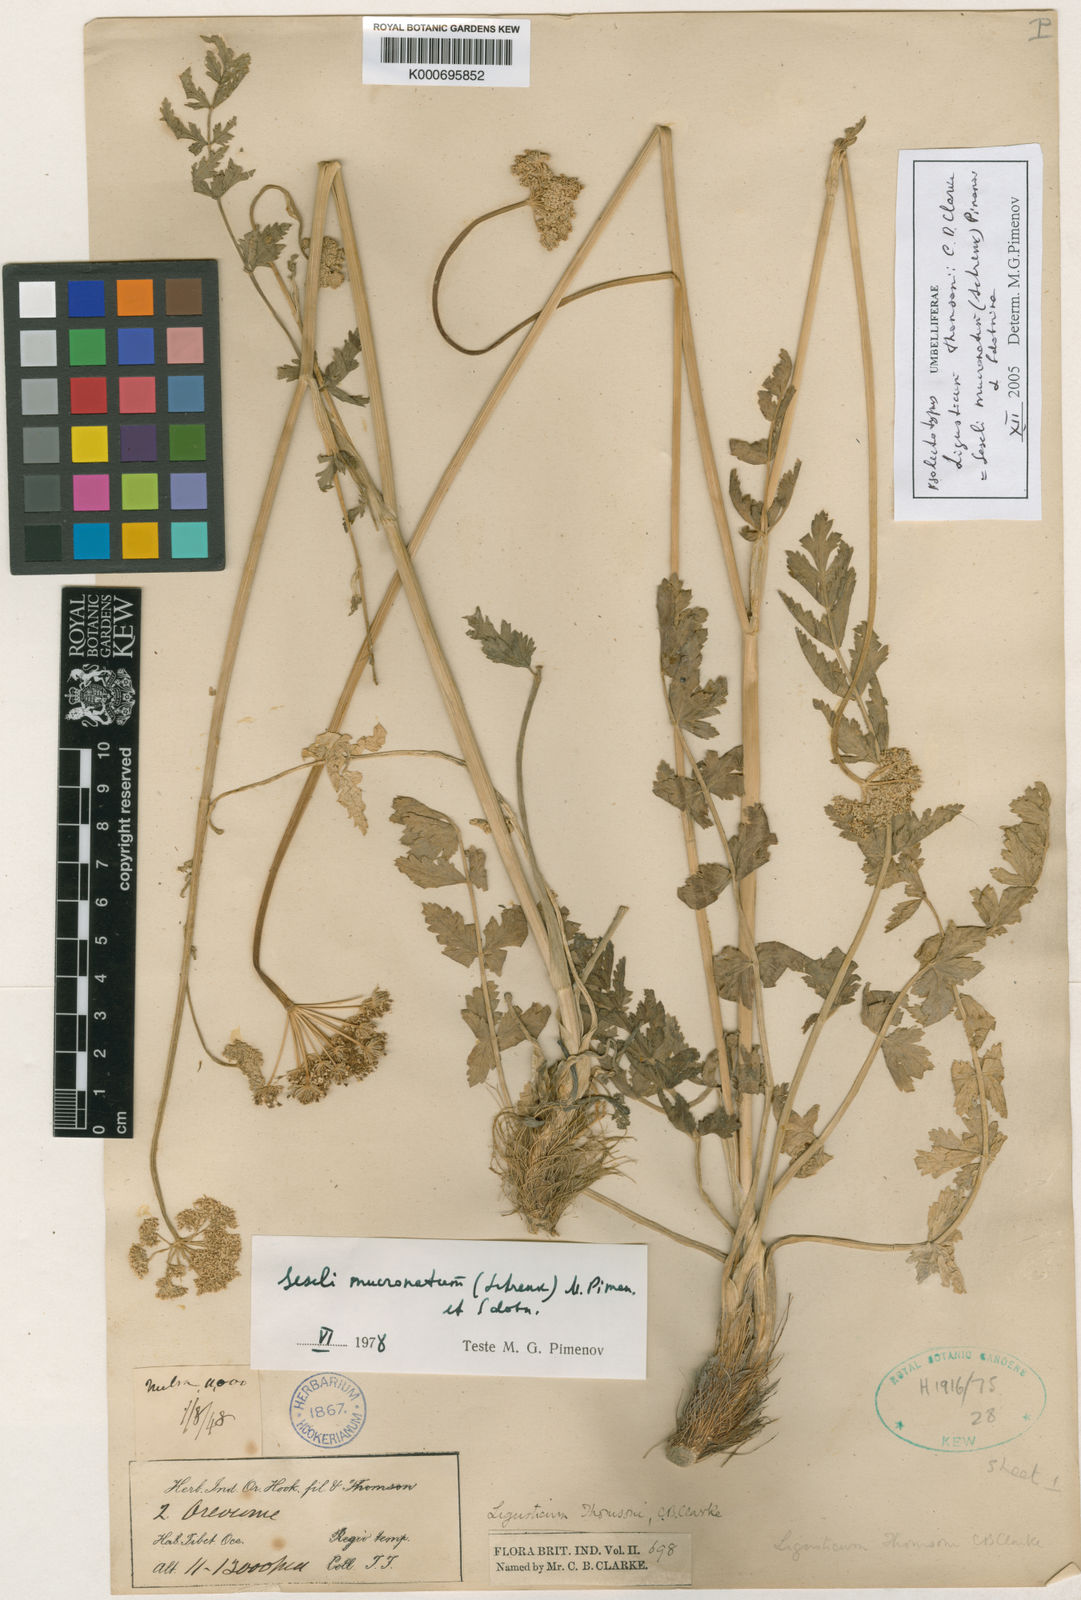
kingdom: Plantae
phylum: Tracheophyta
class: Magnoliopsida
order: Apiales
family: Apiaceae
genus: Seseli
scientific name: Seseli mucronatum
